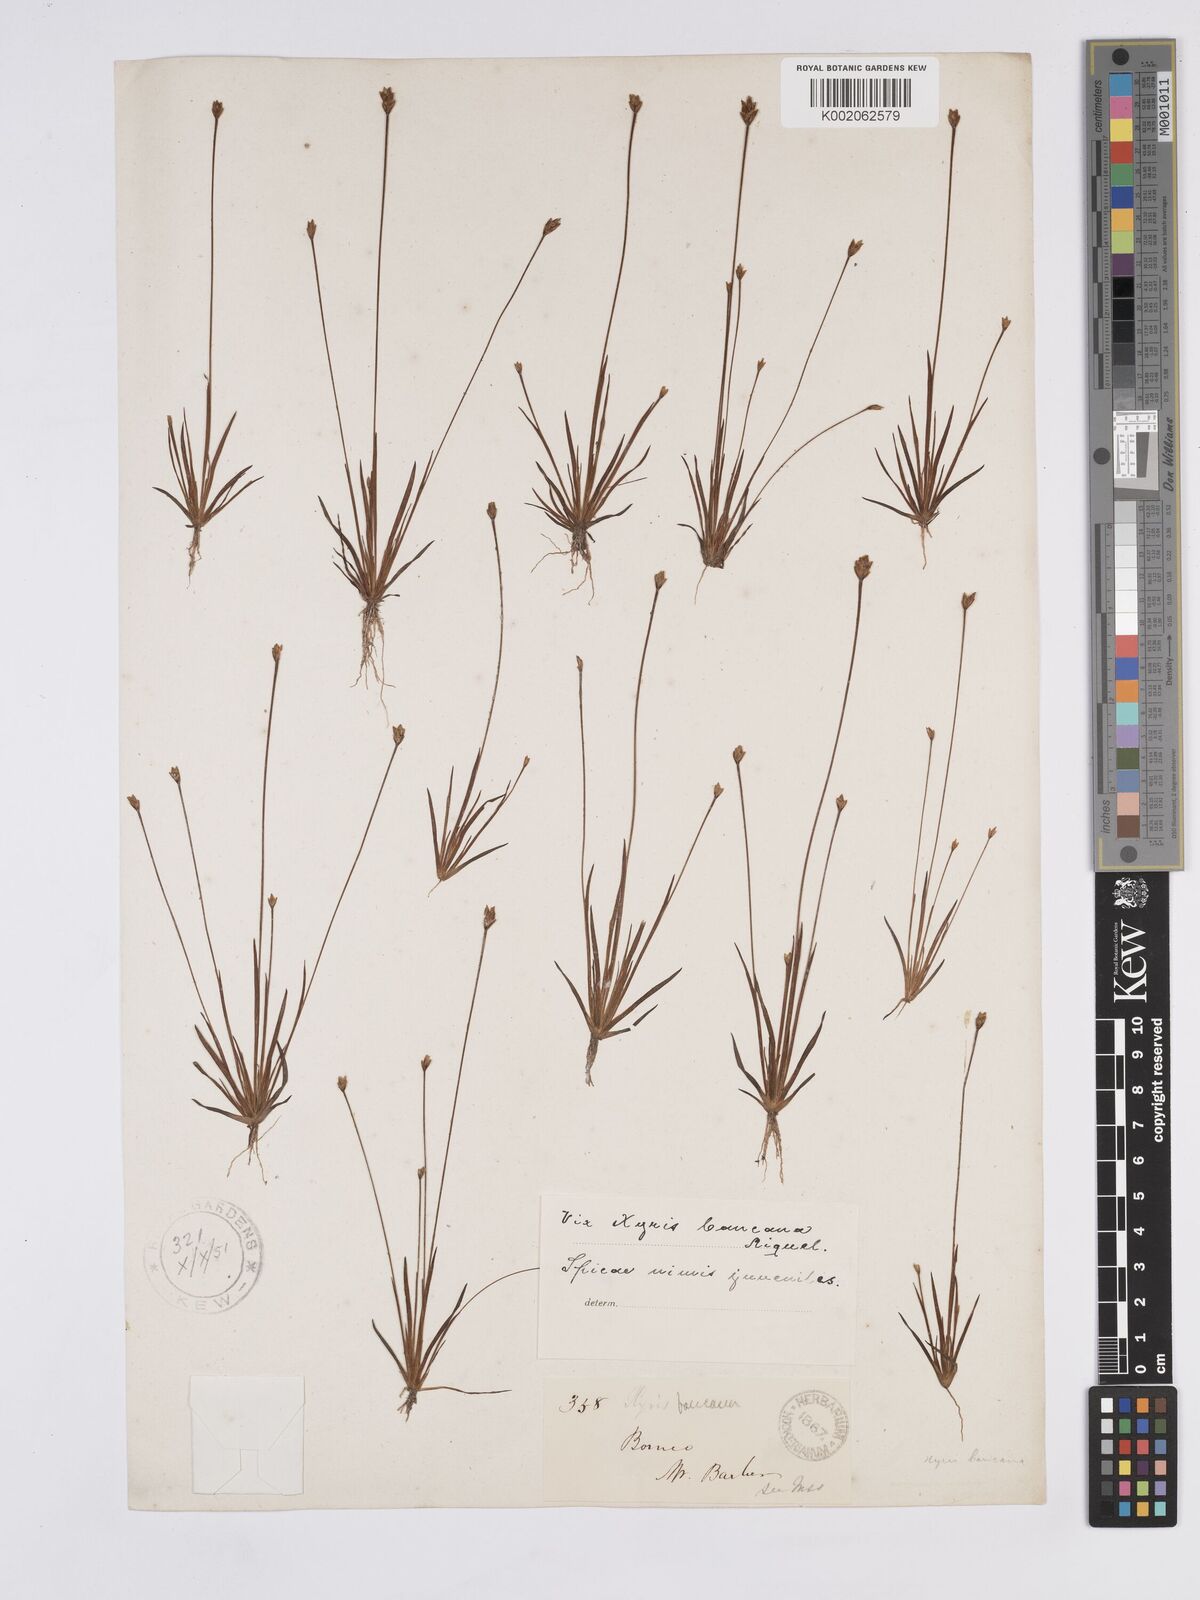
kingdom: Plantae
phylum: Tracheophyta
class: Liliopsida
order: Poales
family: Xyridaceae
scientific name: Xyridaceae
